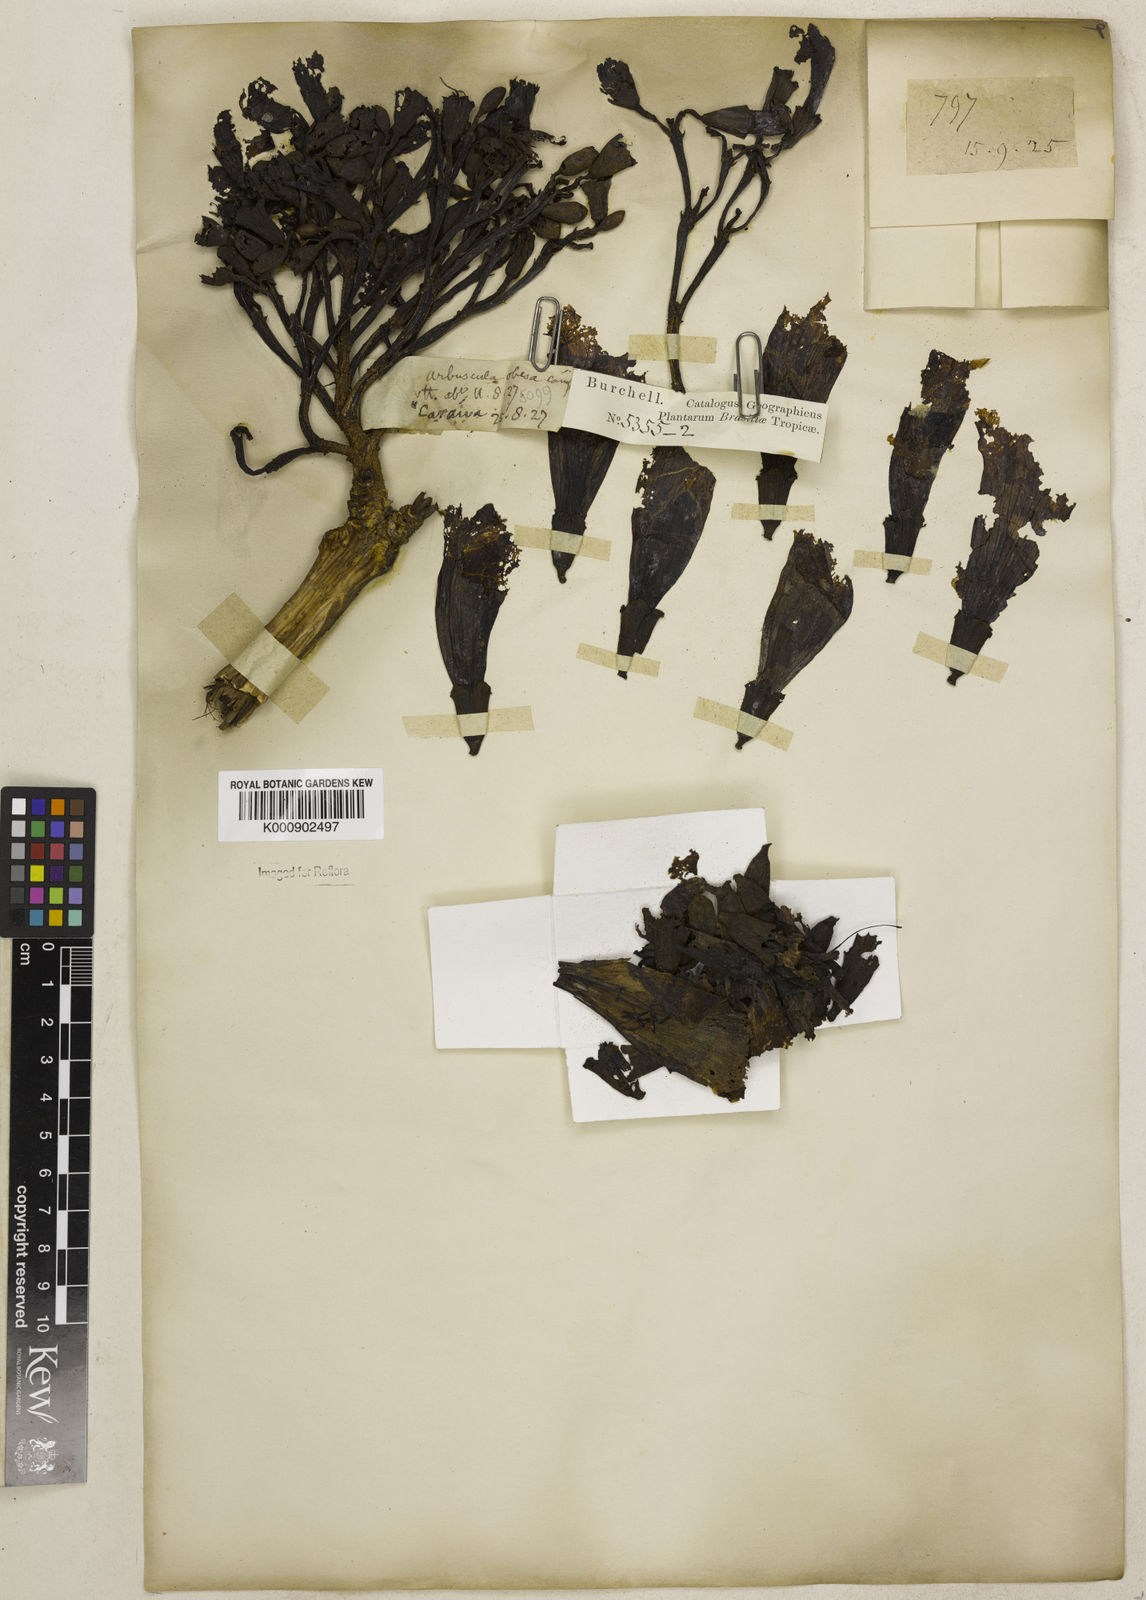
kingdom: Plantae
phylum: Tracheophyta
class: Magnoliopsida
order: Lamiales
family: Bignoniaceae
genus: Tabebuia
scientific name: Tabebuia aurea
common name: Caribbean trumpet-tree
